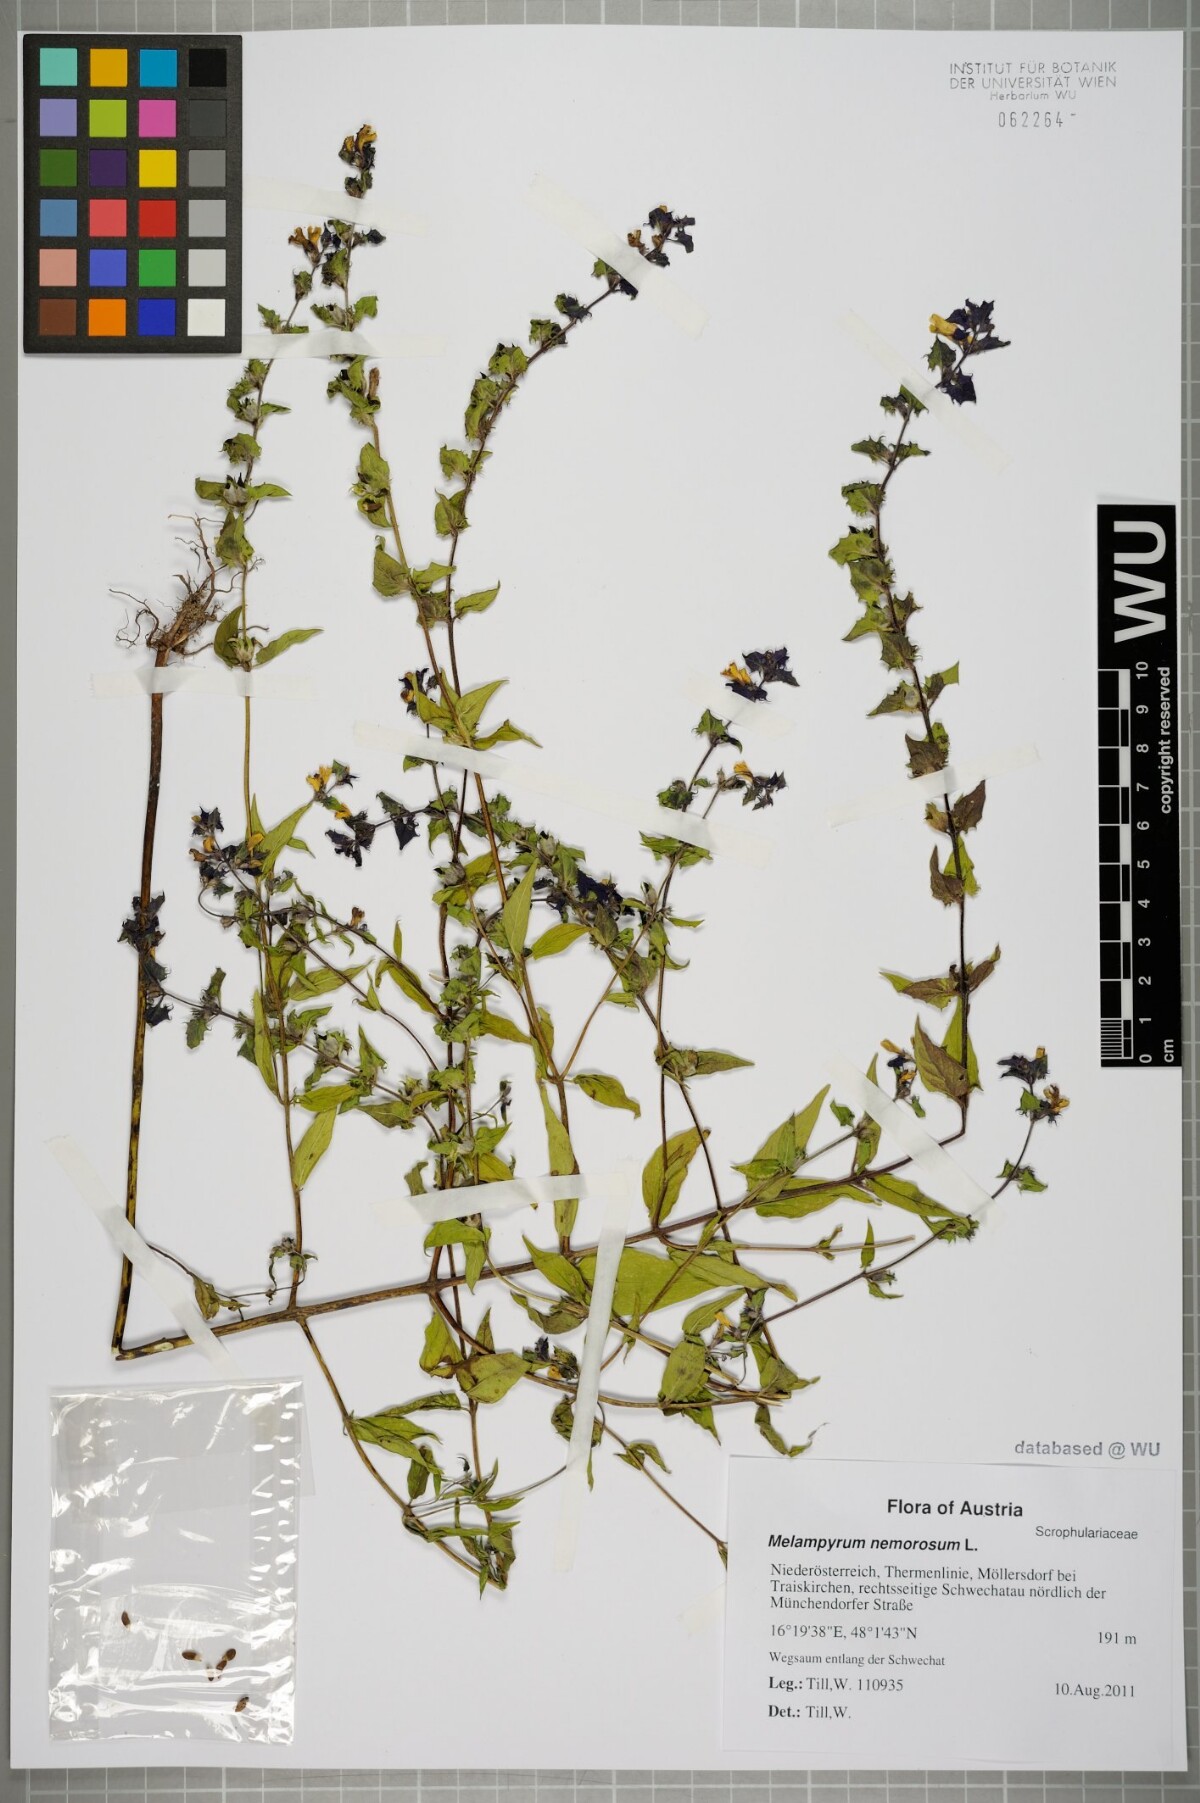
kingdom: Plantae
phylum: Tracheophyta
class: Magnoliopsida
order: Lamiales
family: Orobanchaceae
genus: Melampyrum
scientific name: Melampyrum nemorosum
